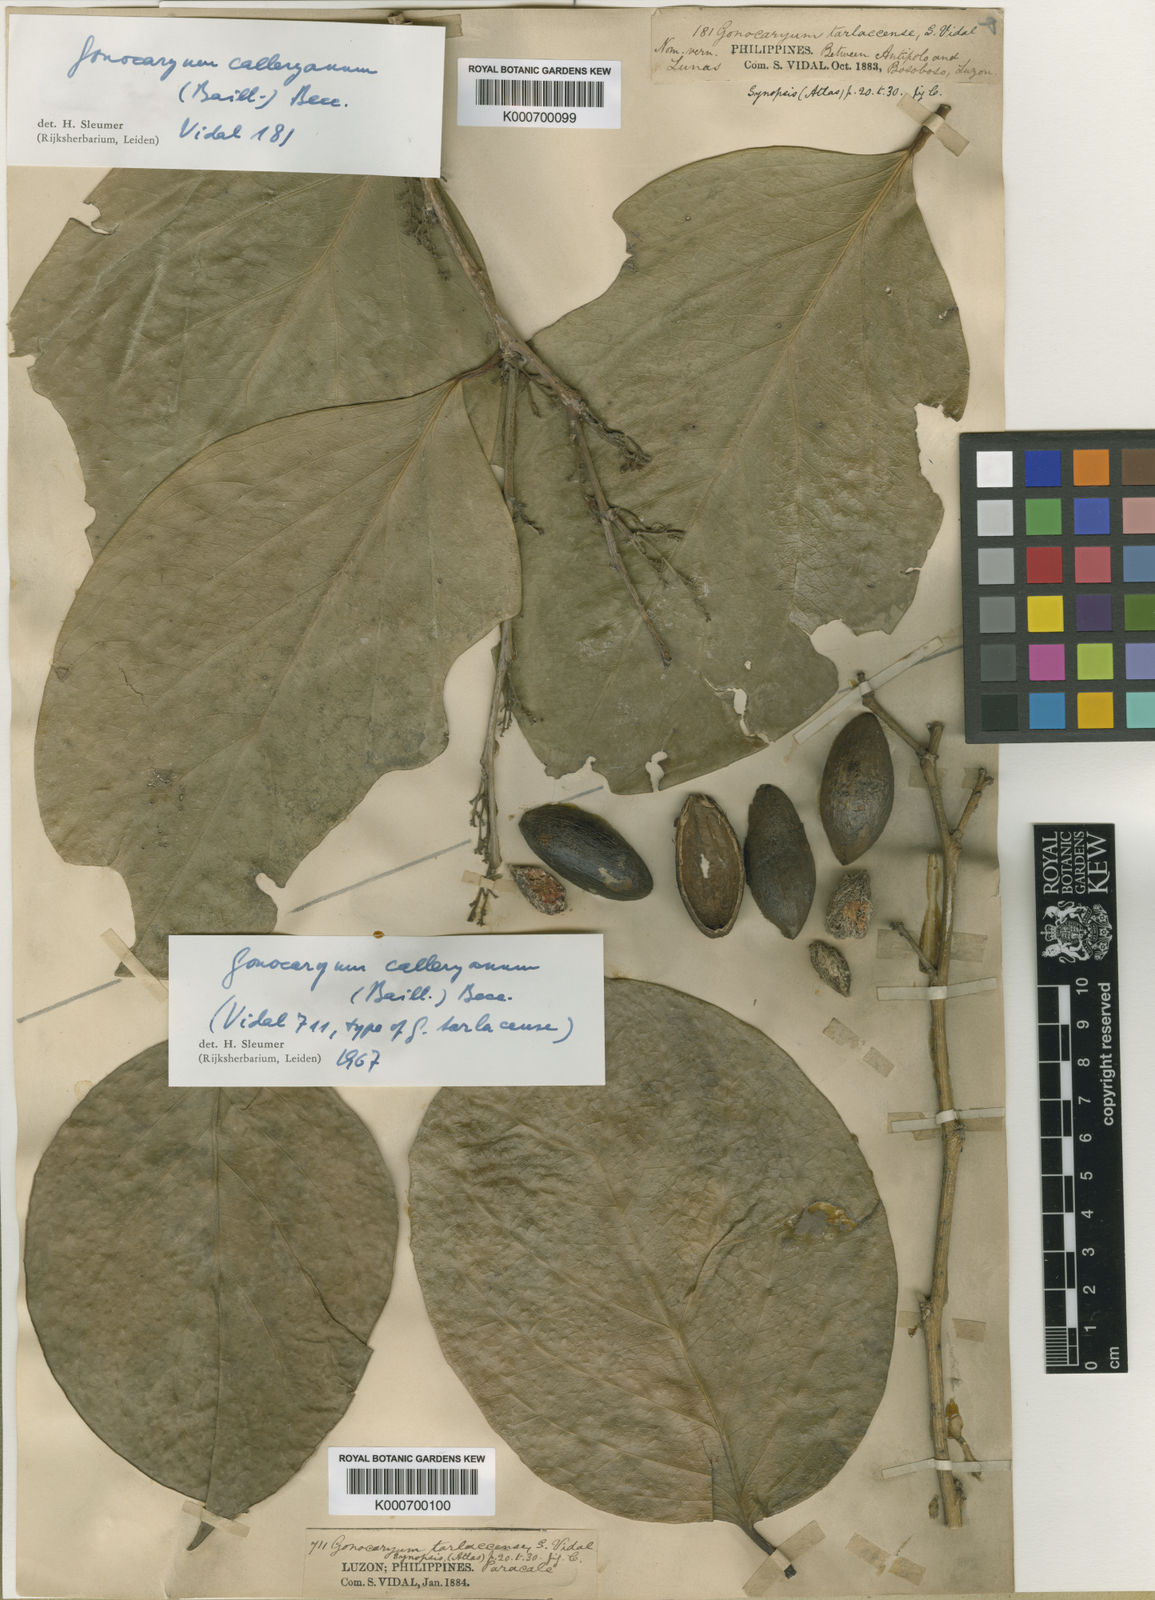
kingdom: Plantae
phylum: Tracheophyta
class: Magnoliopsida
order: Cardiopteridales
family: Cardiopteridaceae
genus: Gonocaryum
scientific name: Gonocaryum calleryanum
